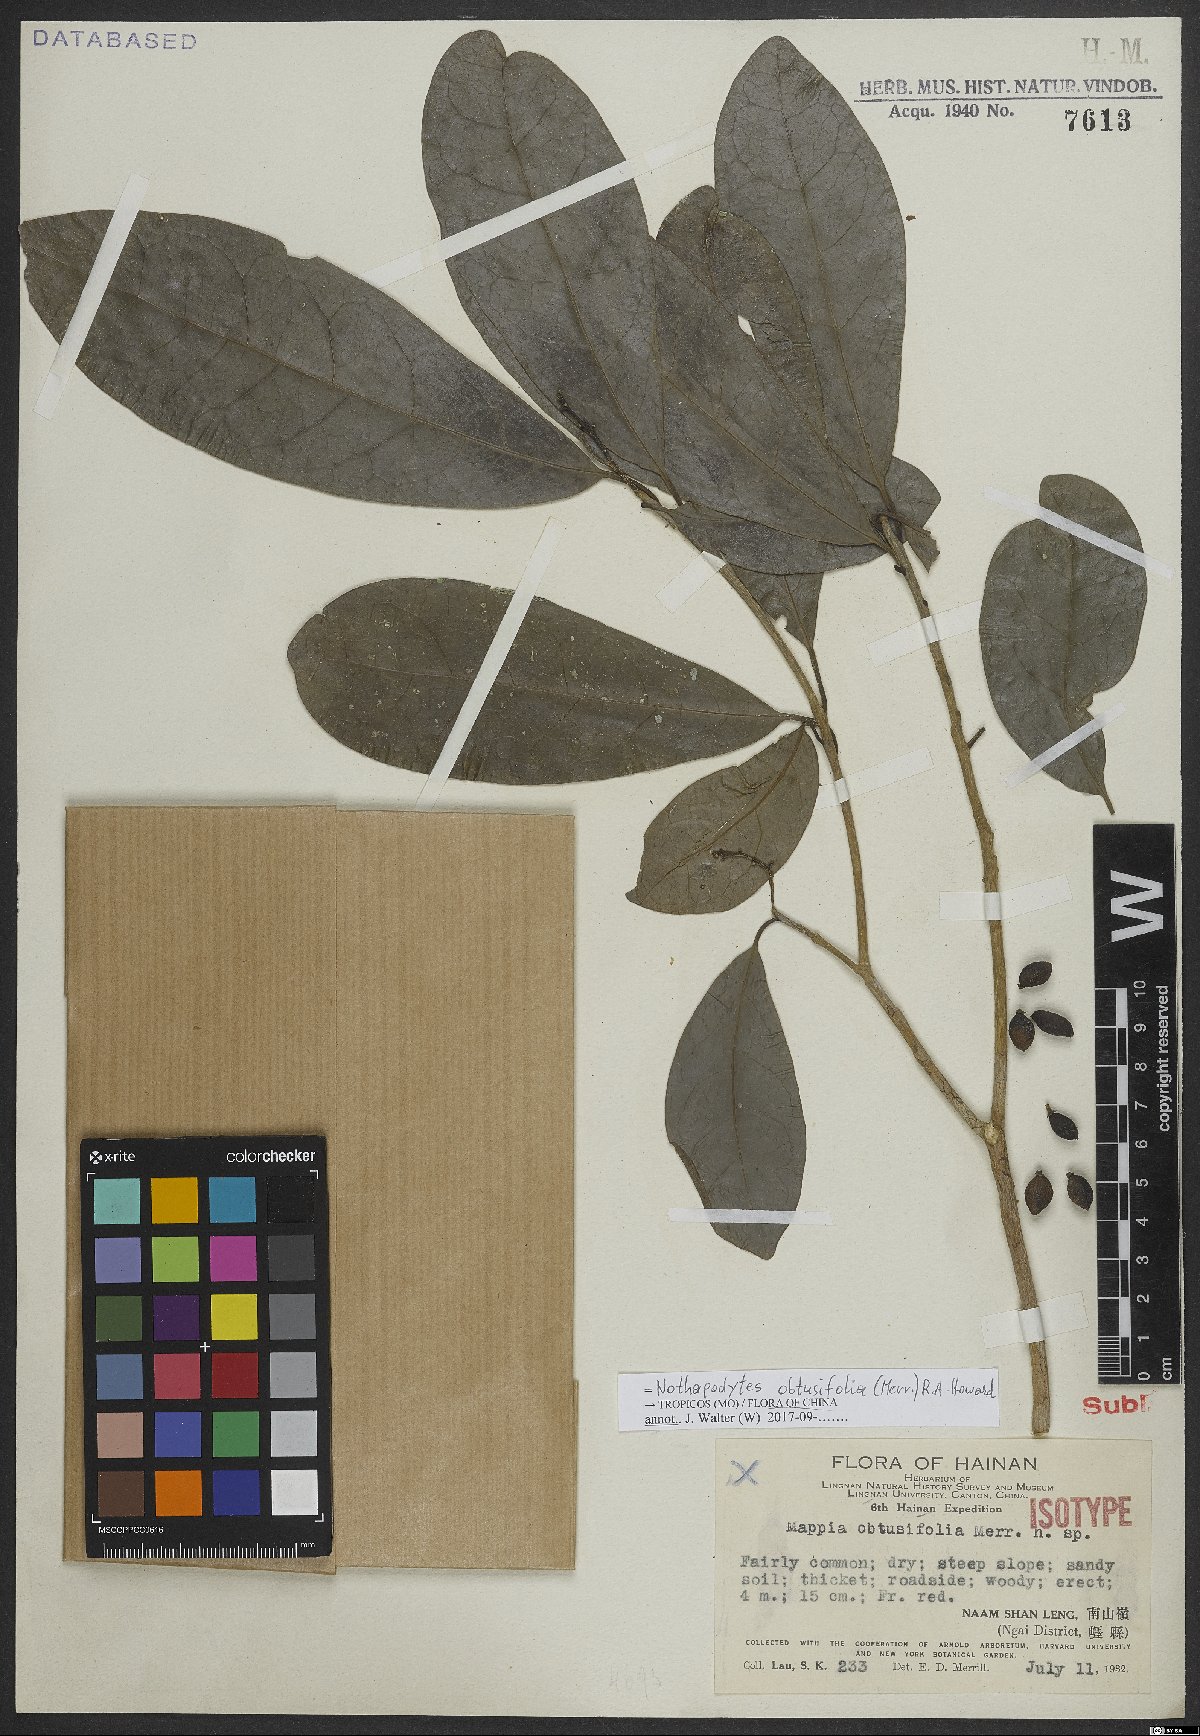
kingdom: Plantae
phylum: Tracheophyta
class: Magnoliopsida
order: Icacinales
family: Icacinaceae
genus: Nothapodytes
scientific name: Nothapodytes obtusifolia
